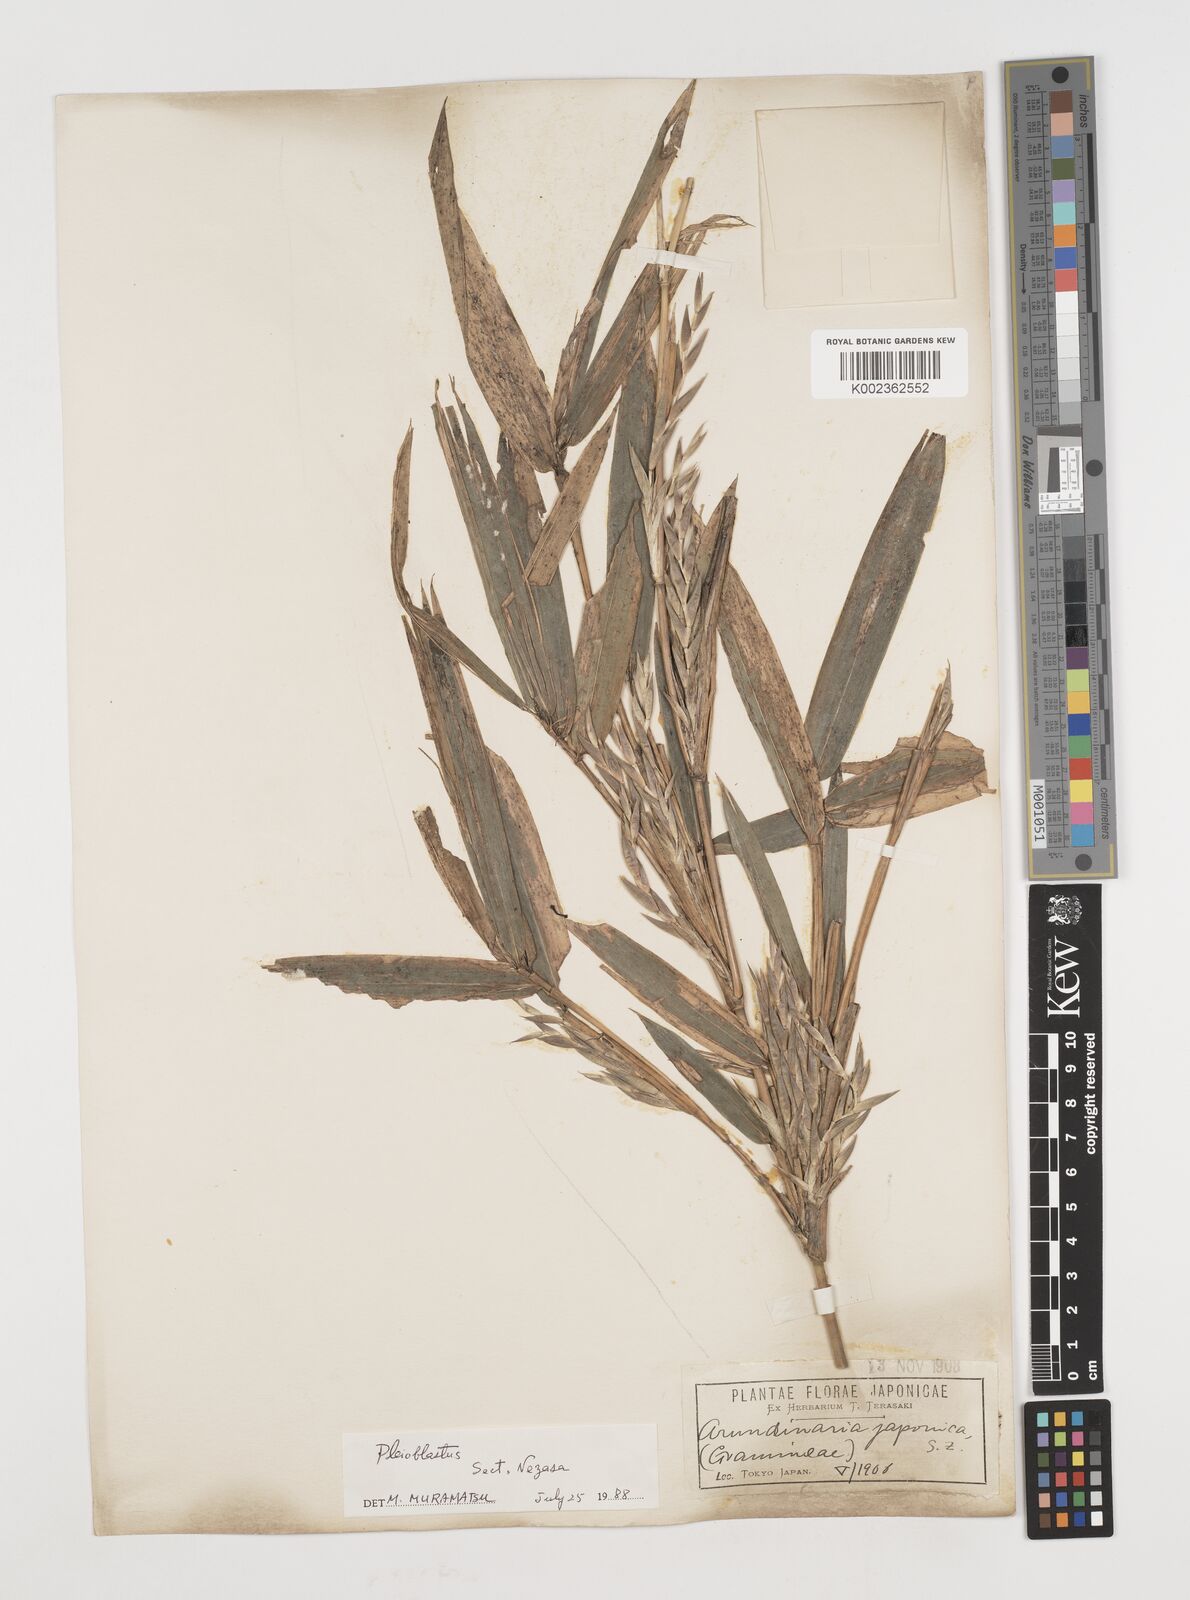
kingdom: Plantae
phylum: Tracheophyta
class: Liliopsida
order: Poales
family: Poaceae
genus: Pseudosasa
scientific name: Pseudosasa japonica
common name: Arrow bamboo
